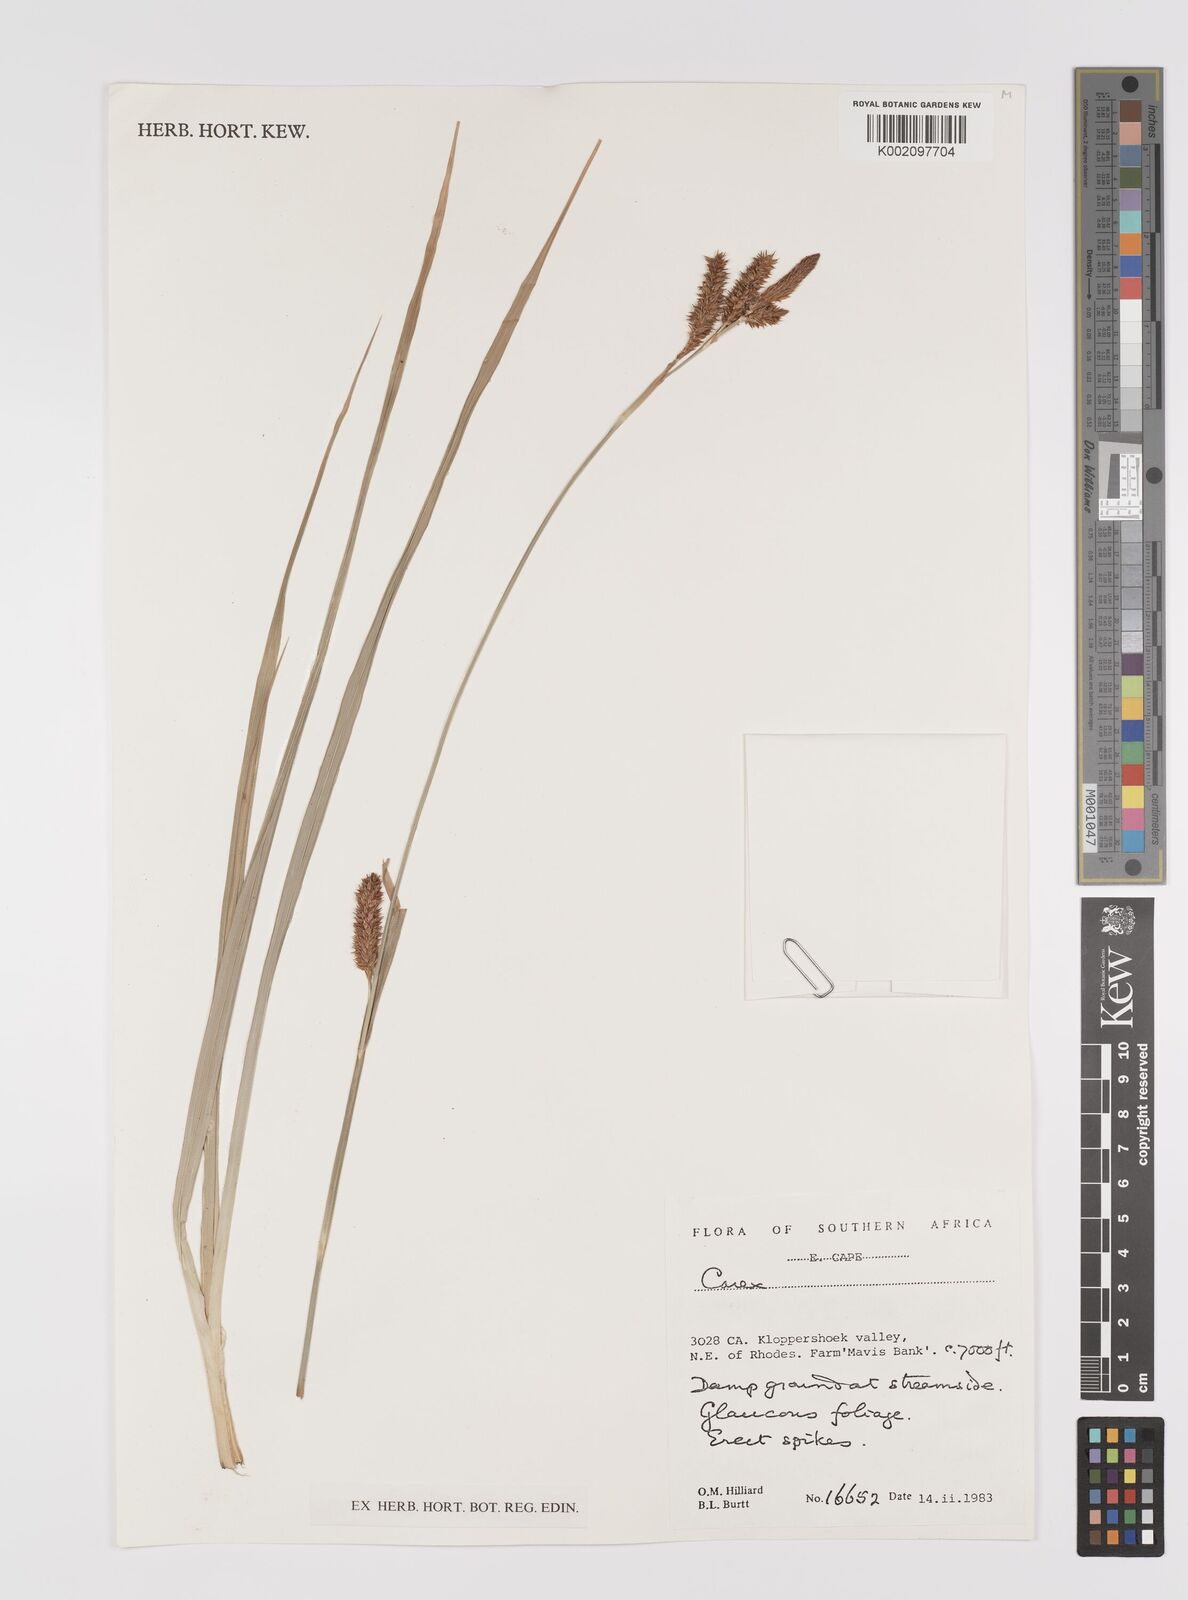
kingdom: Plantae
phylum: Tracheophyta
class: Liliopsida
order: Poales
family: Cyperaceae
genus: Carex
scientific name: Carex
